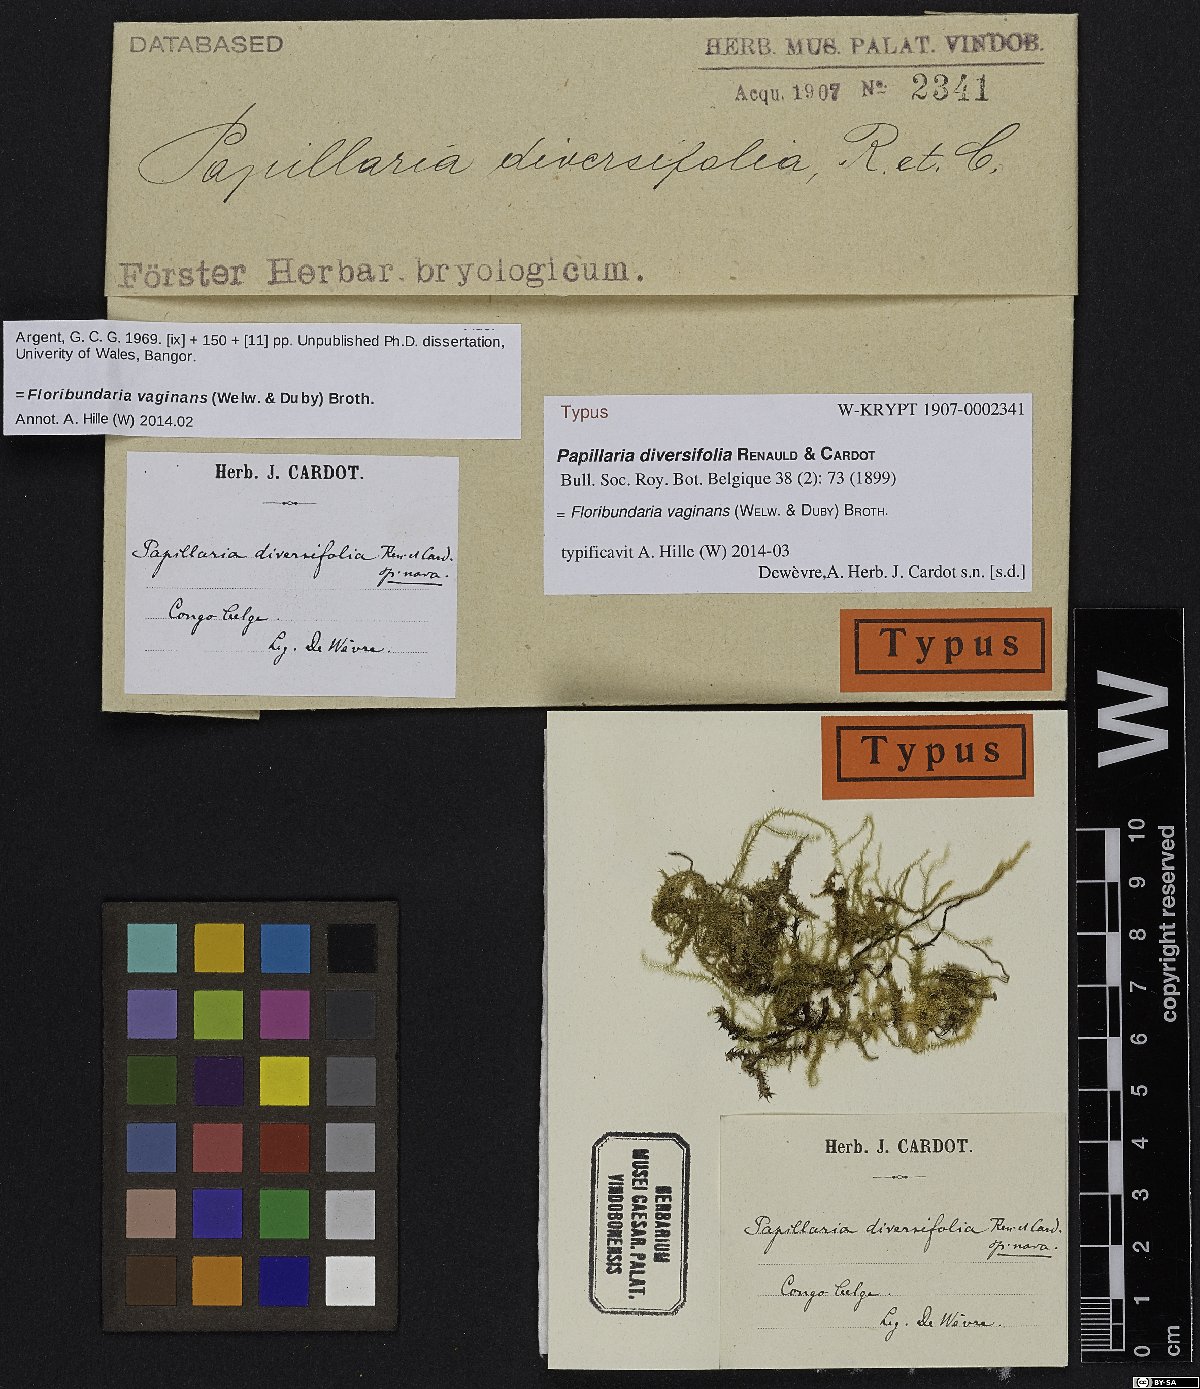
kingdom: Plantae
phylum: Bryophyta
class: Bryopsida
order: Hypnales
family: Meteoriaceae
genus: Floribundaria
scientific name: Floribundaria vaginans
